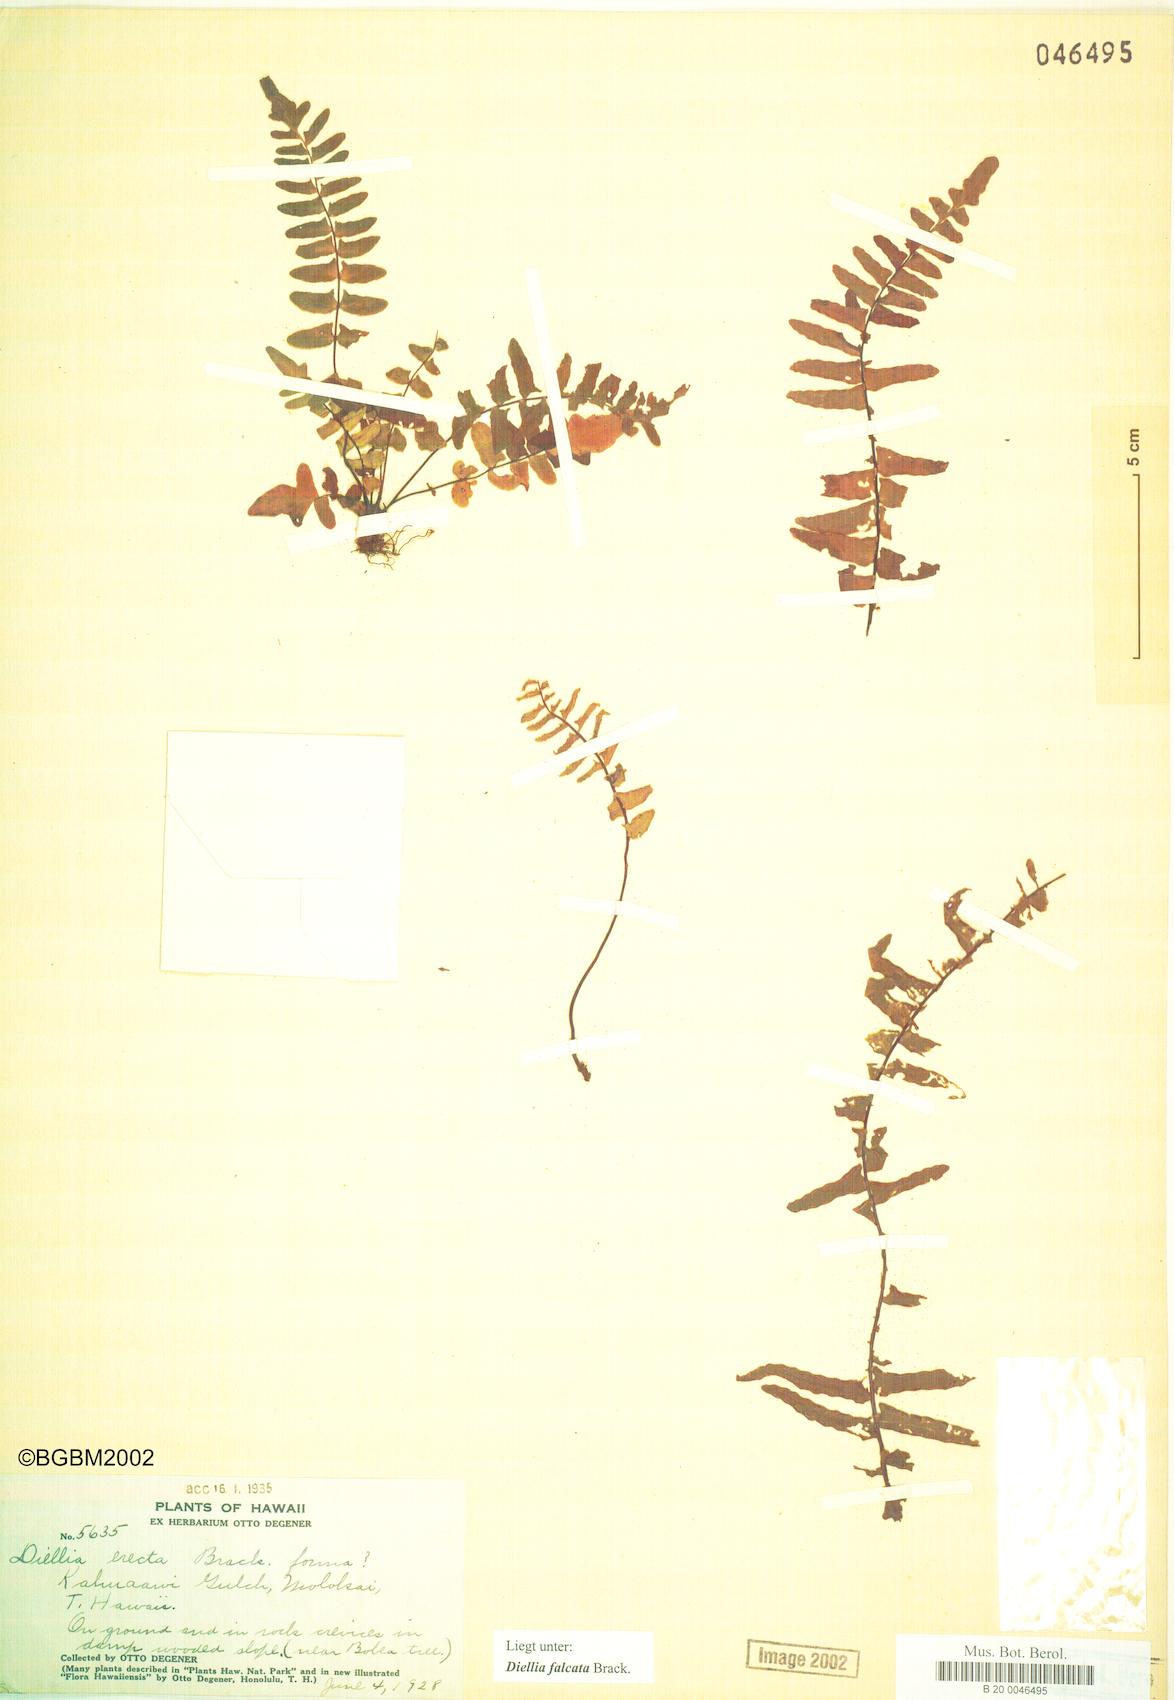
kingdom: Plantae
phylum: Tracheophyta
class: Polypodiopsida
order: Polypodiales
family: Aspleniaceae
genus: Asplenium
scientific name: Asplenium dielfalcatum
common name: Sickle island spleenwort
